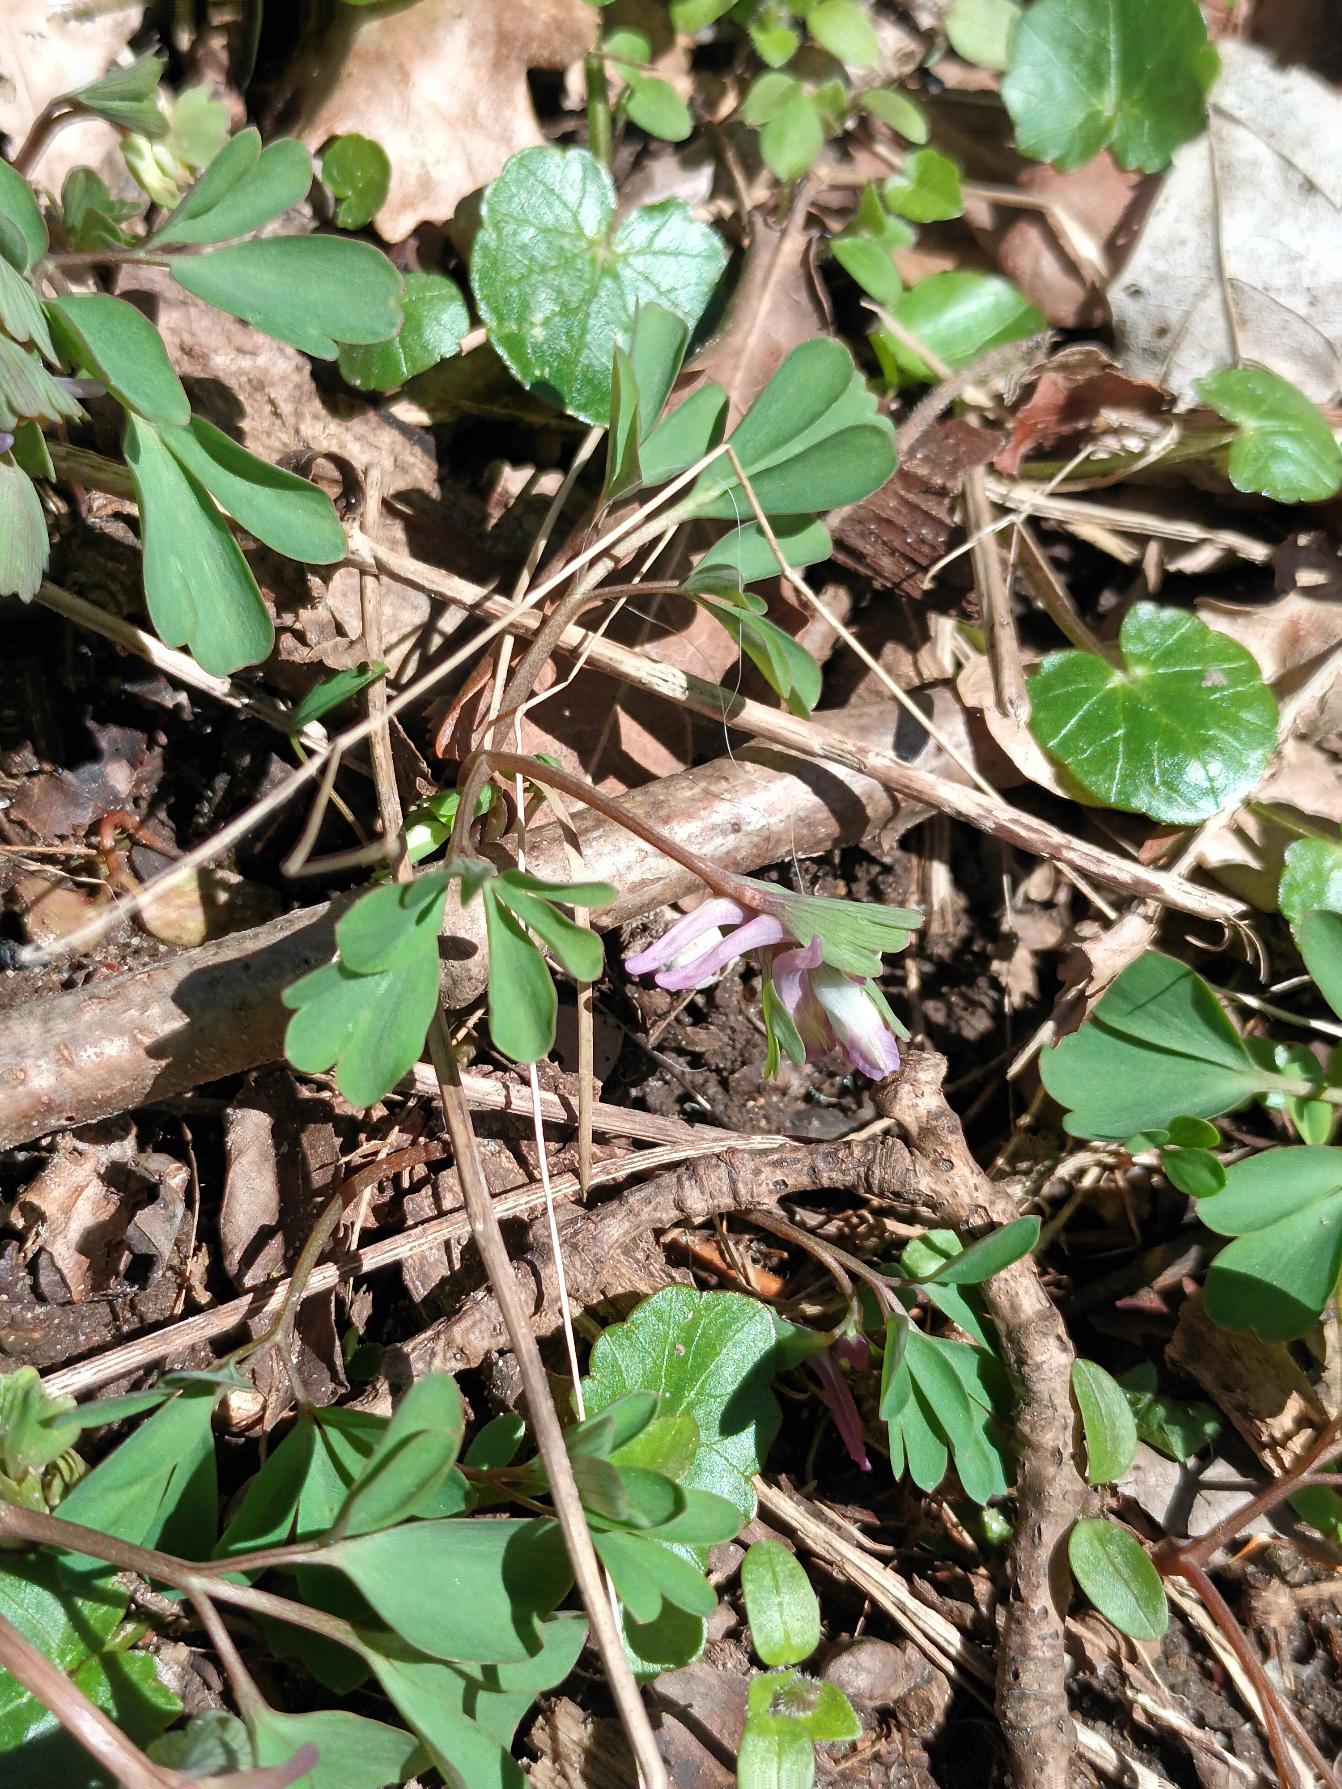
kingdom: Plantae
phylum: Tracheophyta
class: Magnoliopsida
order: Ranunculales
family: Papaveraceae
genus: Corydalis
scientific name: Corydalis pumila
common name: Finger-lærkespore
